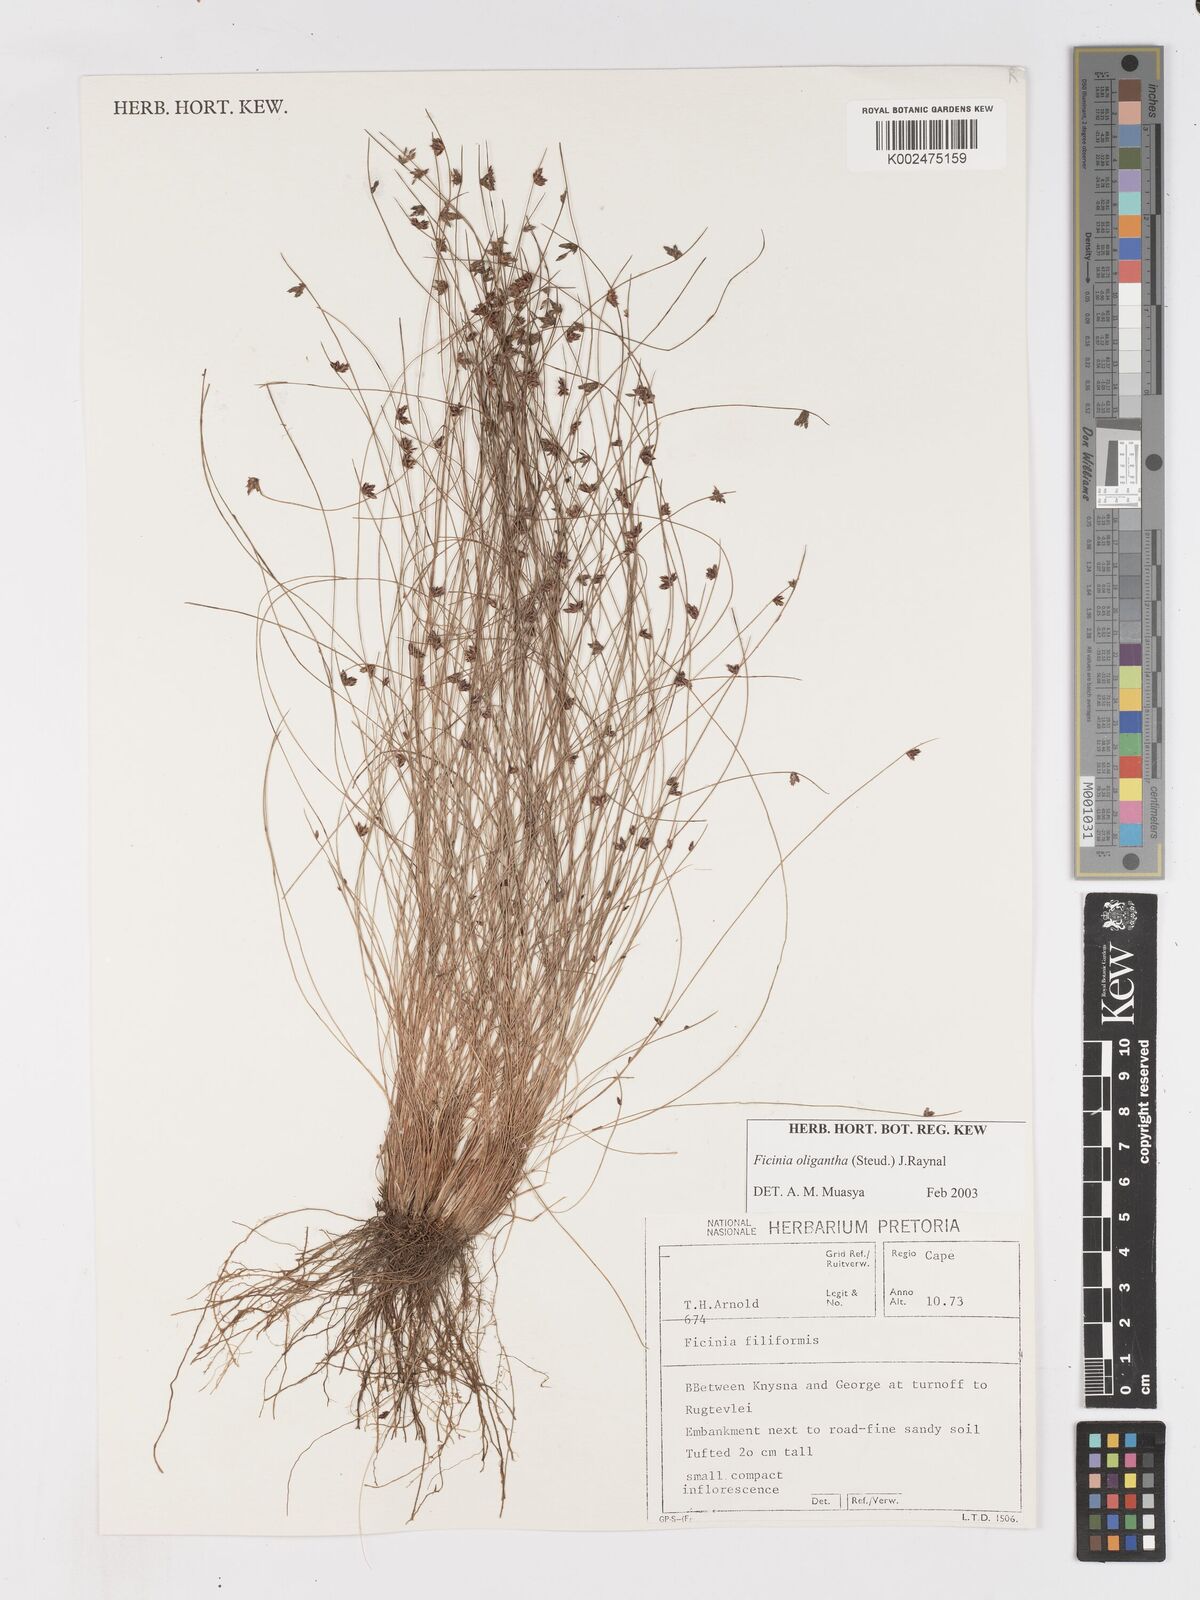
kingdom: Plantae
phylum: Tracheophyta
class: Liliopsida
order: Poales
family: Cyperaceae
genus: Ficinia
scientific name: Ficinia stolonifera
